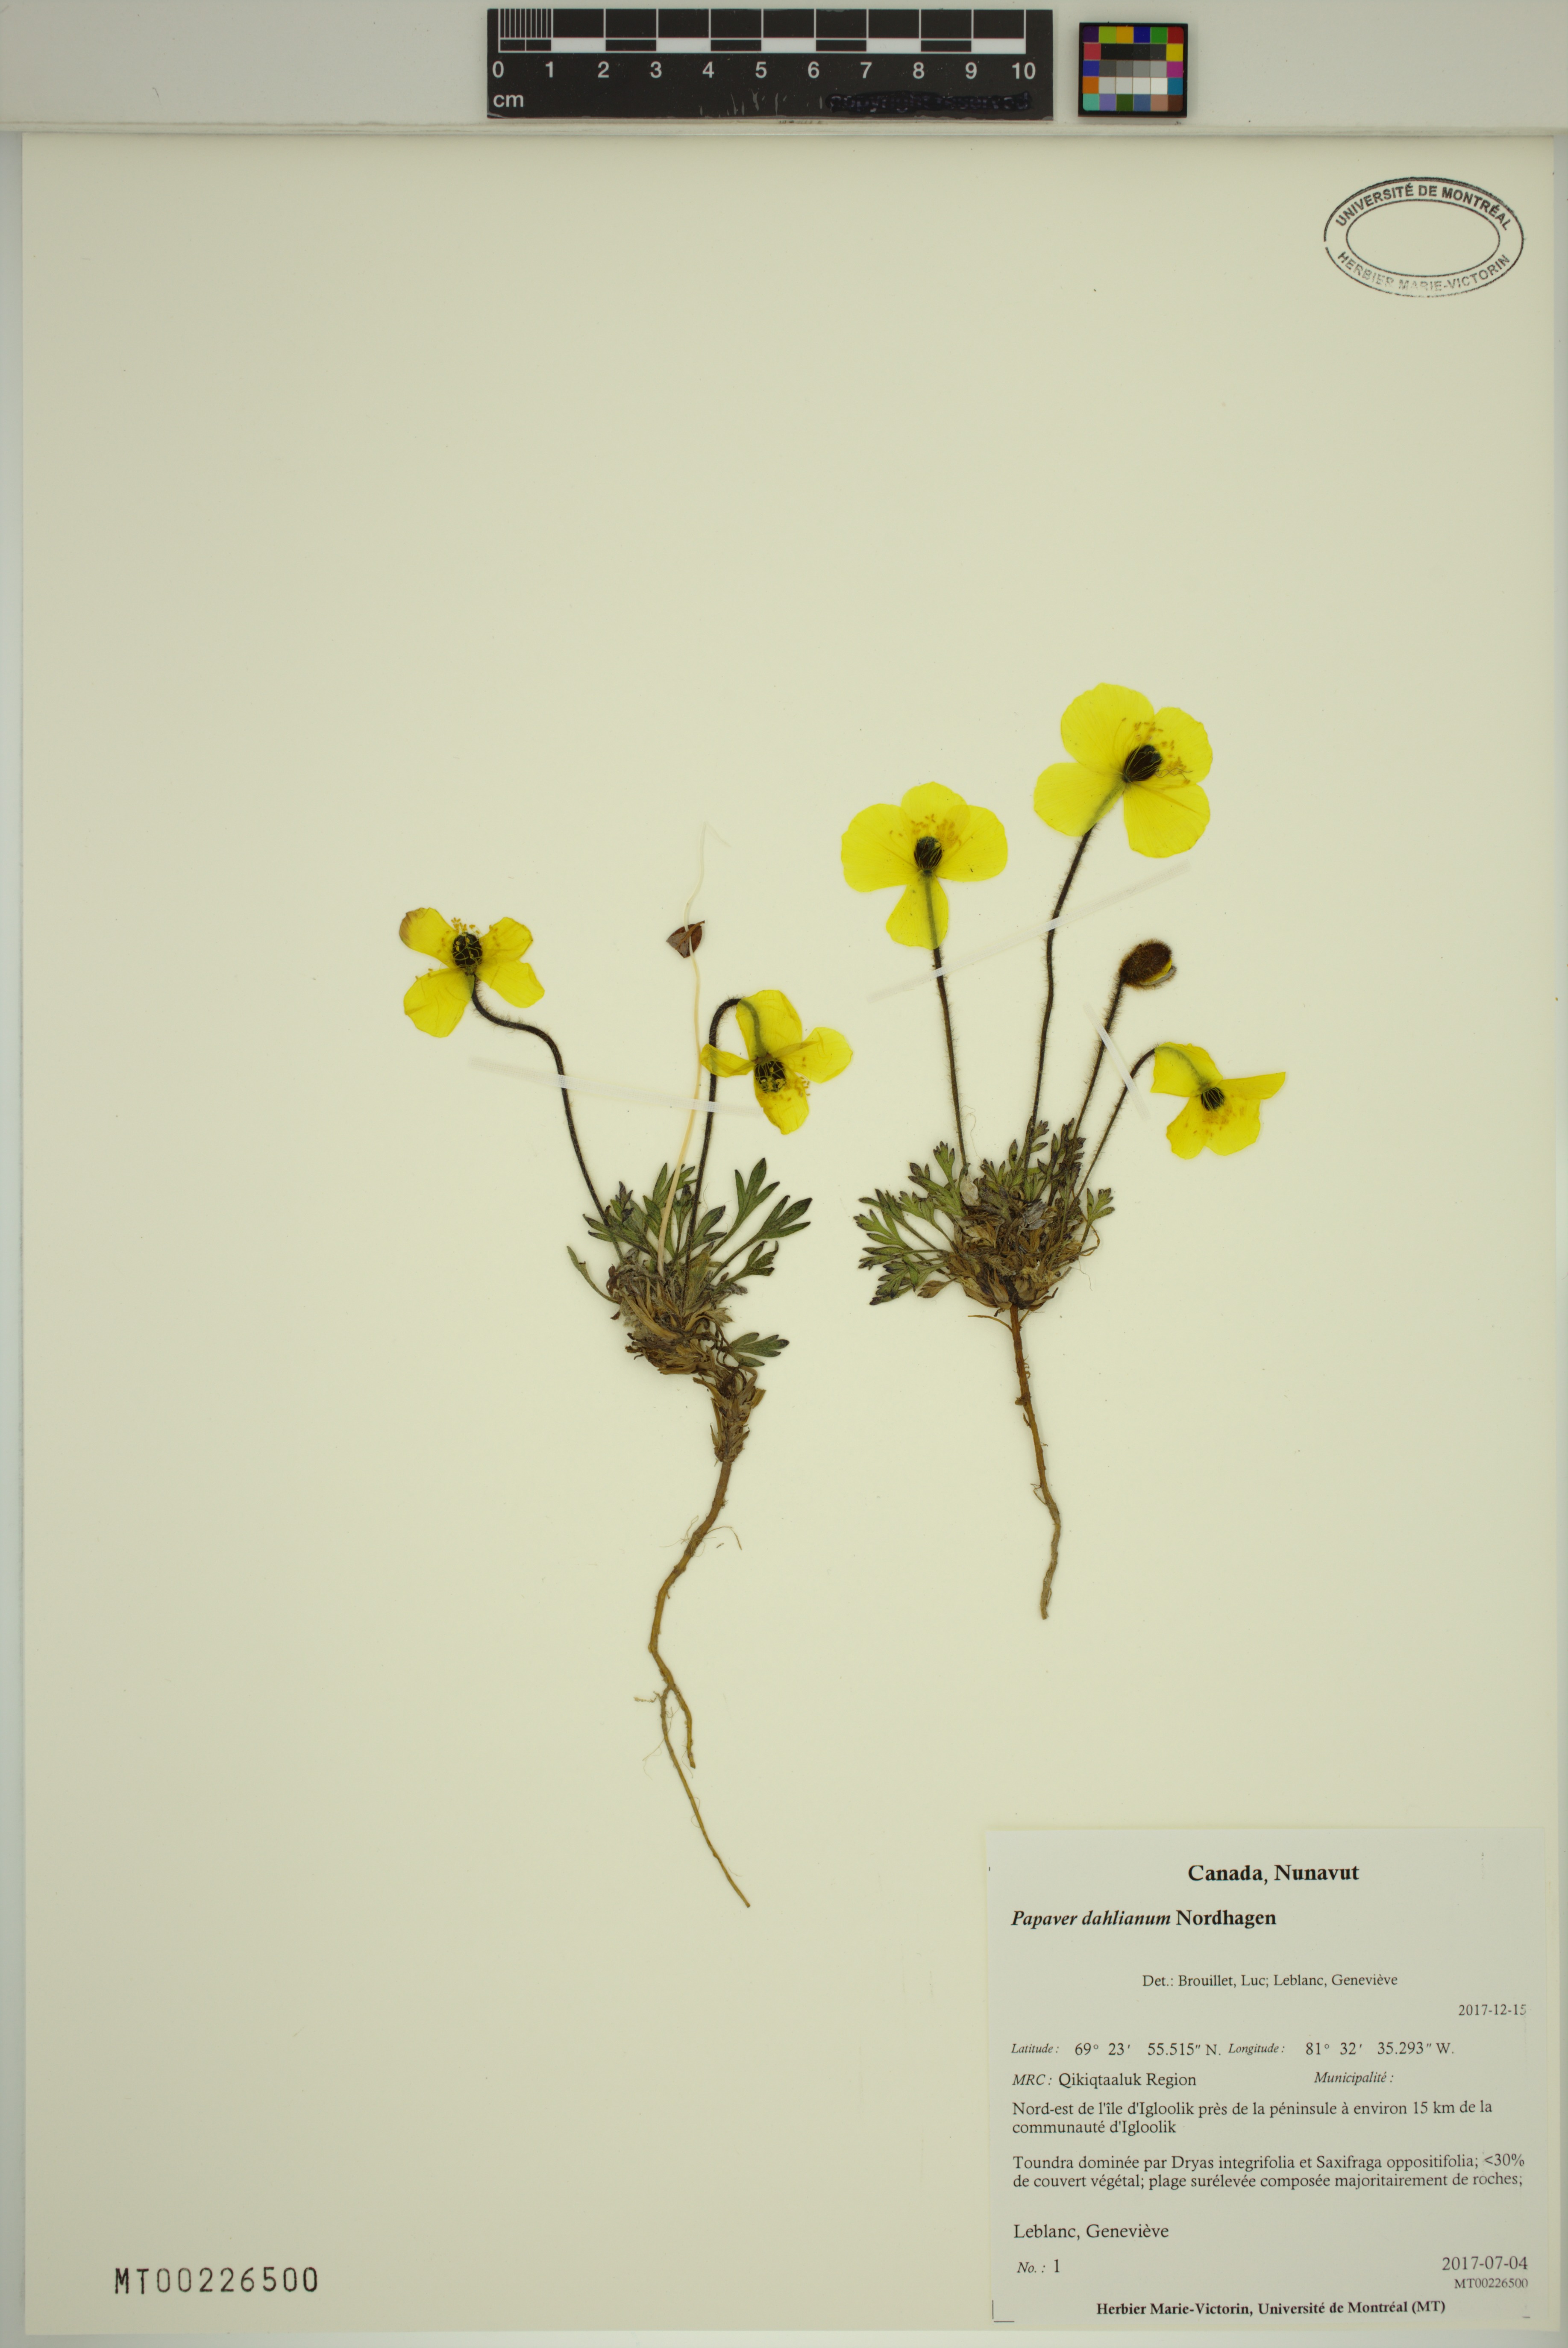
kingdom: Plantae
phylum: Tracheophyta
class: Magnoliopsida
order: Ranunculales
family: Papaveraceae
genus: Papaver
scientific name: Papaver radicatum
